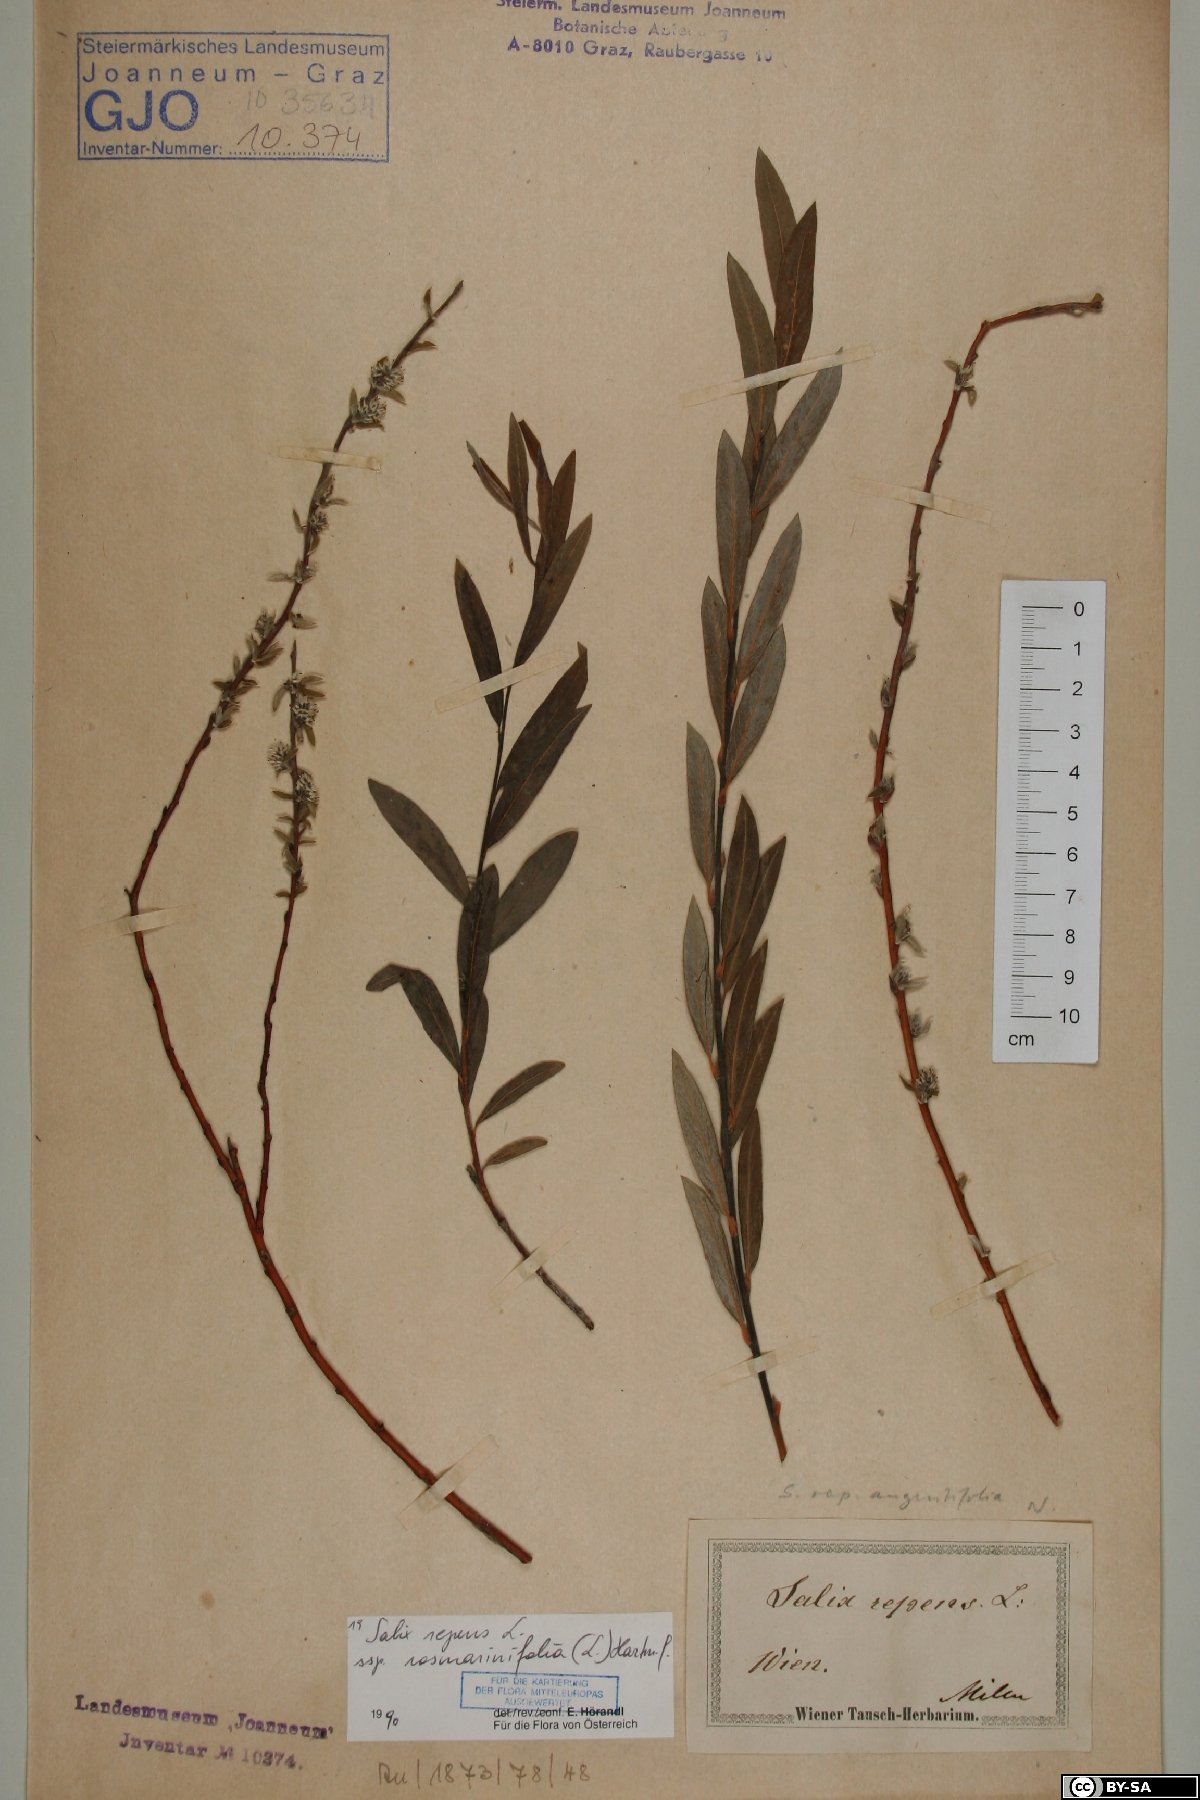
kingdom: Plantae
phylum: Tracheophyta
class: Magnoliopsida
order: Malpighiales
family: Salicaceae
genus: Salix
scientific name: Salix repens
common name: Creeping willow
